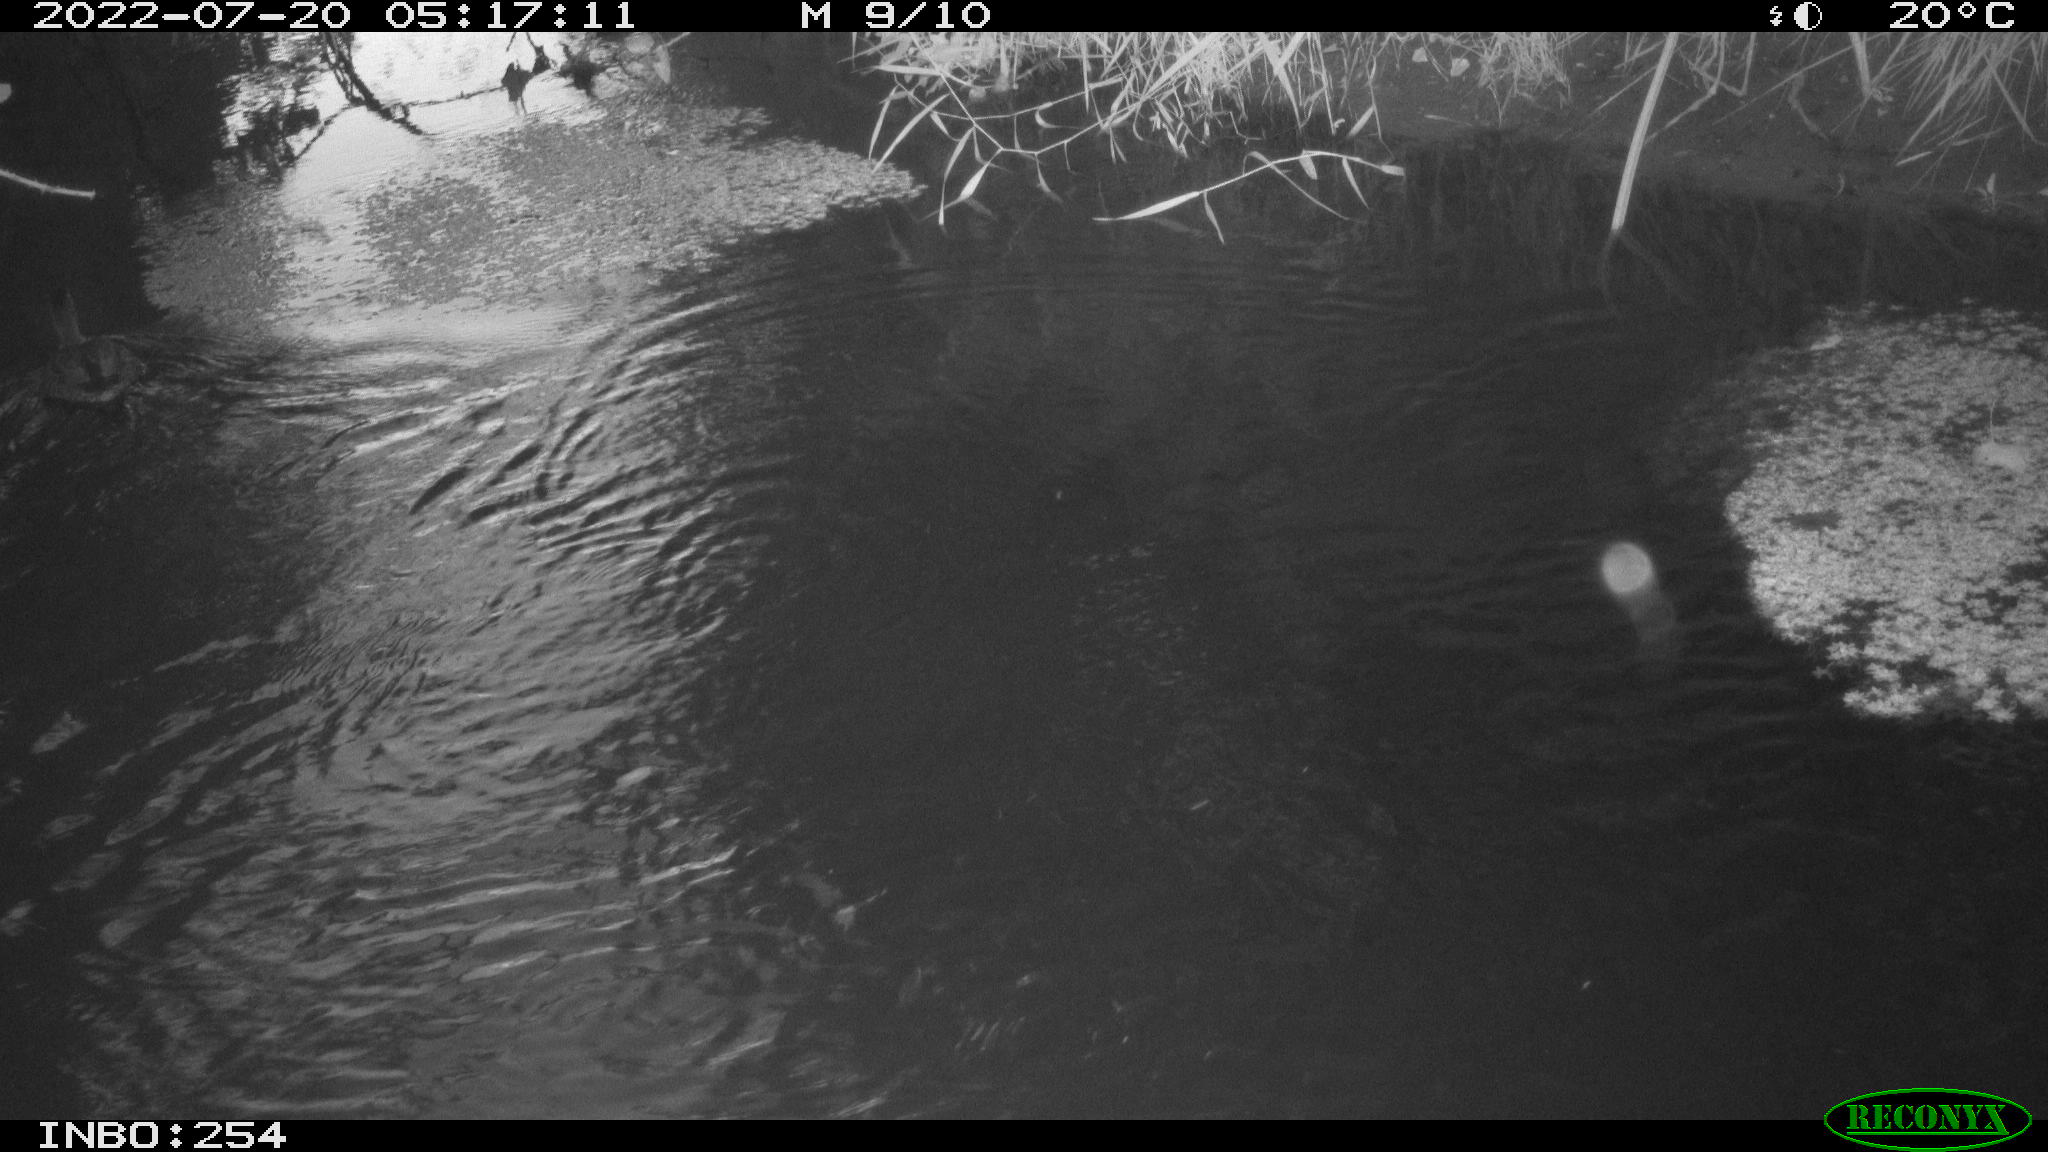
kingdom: Animalia
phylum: Chordata
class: Aves
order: Anseriformes
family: Anatidae
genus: Anas
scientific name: Anas platyrhynchos
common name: Mallard
